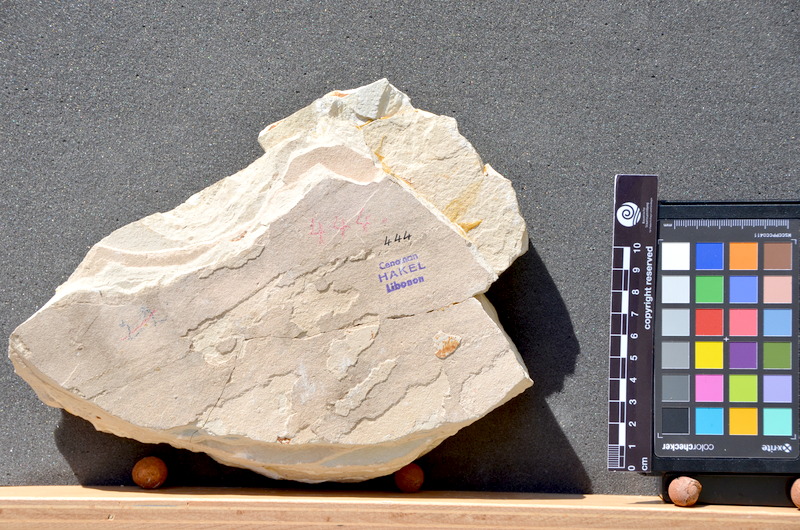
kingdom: Animalia
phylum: Chordata
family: Pycnodontes
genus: Palaeobalistum
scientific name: Palaeobalistum ventralis
